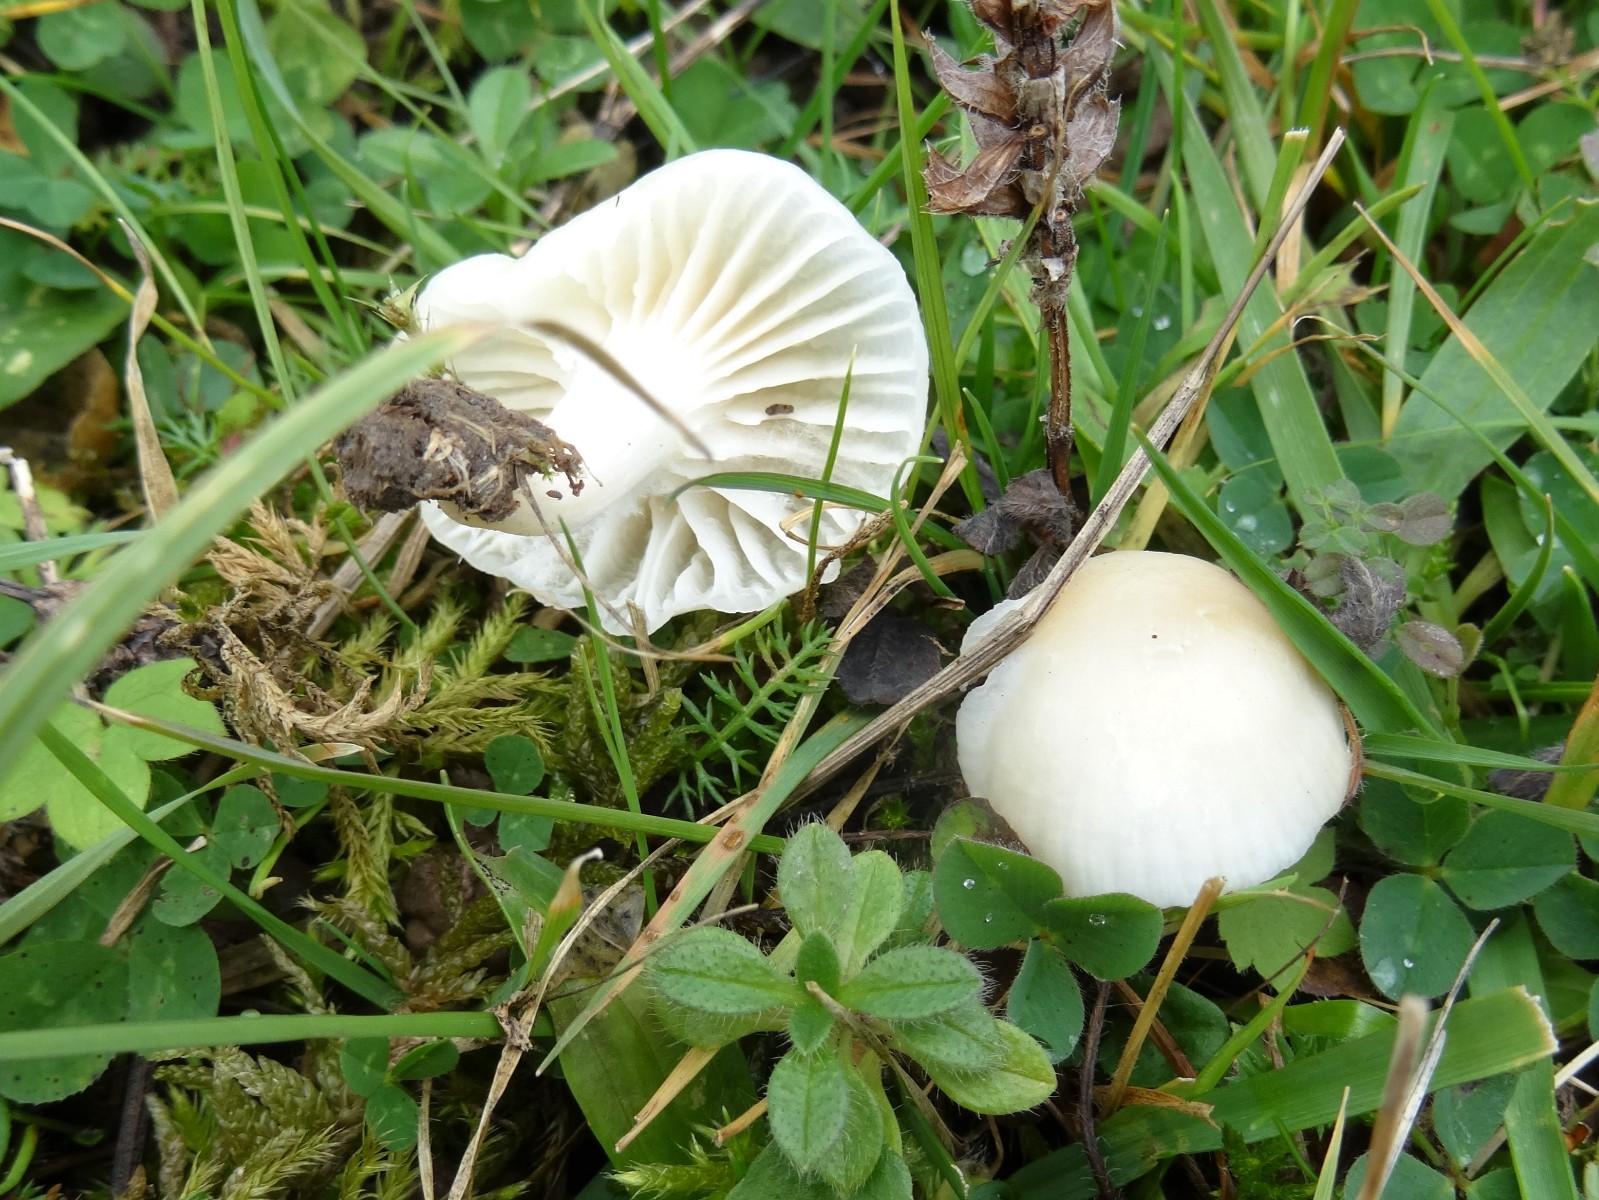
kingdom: Fungi
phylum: Basidiomycota
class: Agaricomycetes
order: Agaricales
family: Hygrophoraceae
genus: Cuphophyllus
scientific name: Cuphophyllus virgineus
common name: snehvid vokshat
